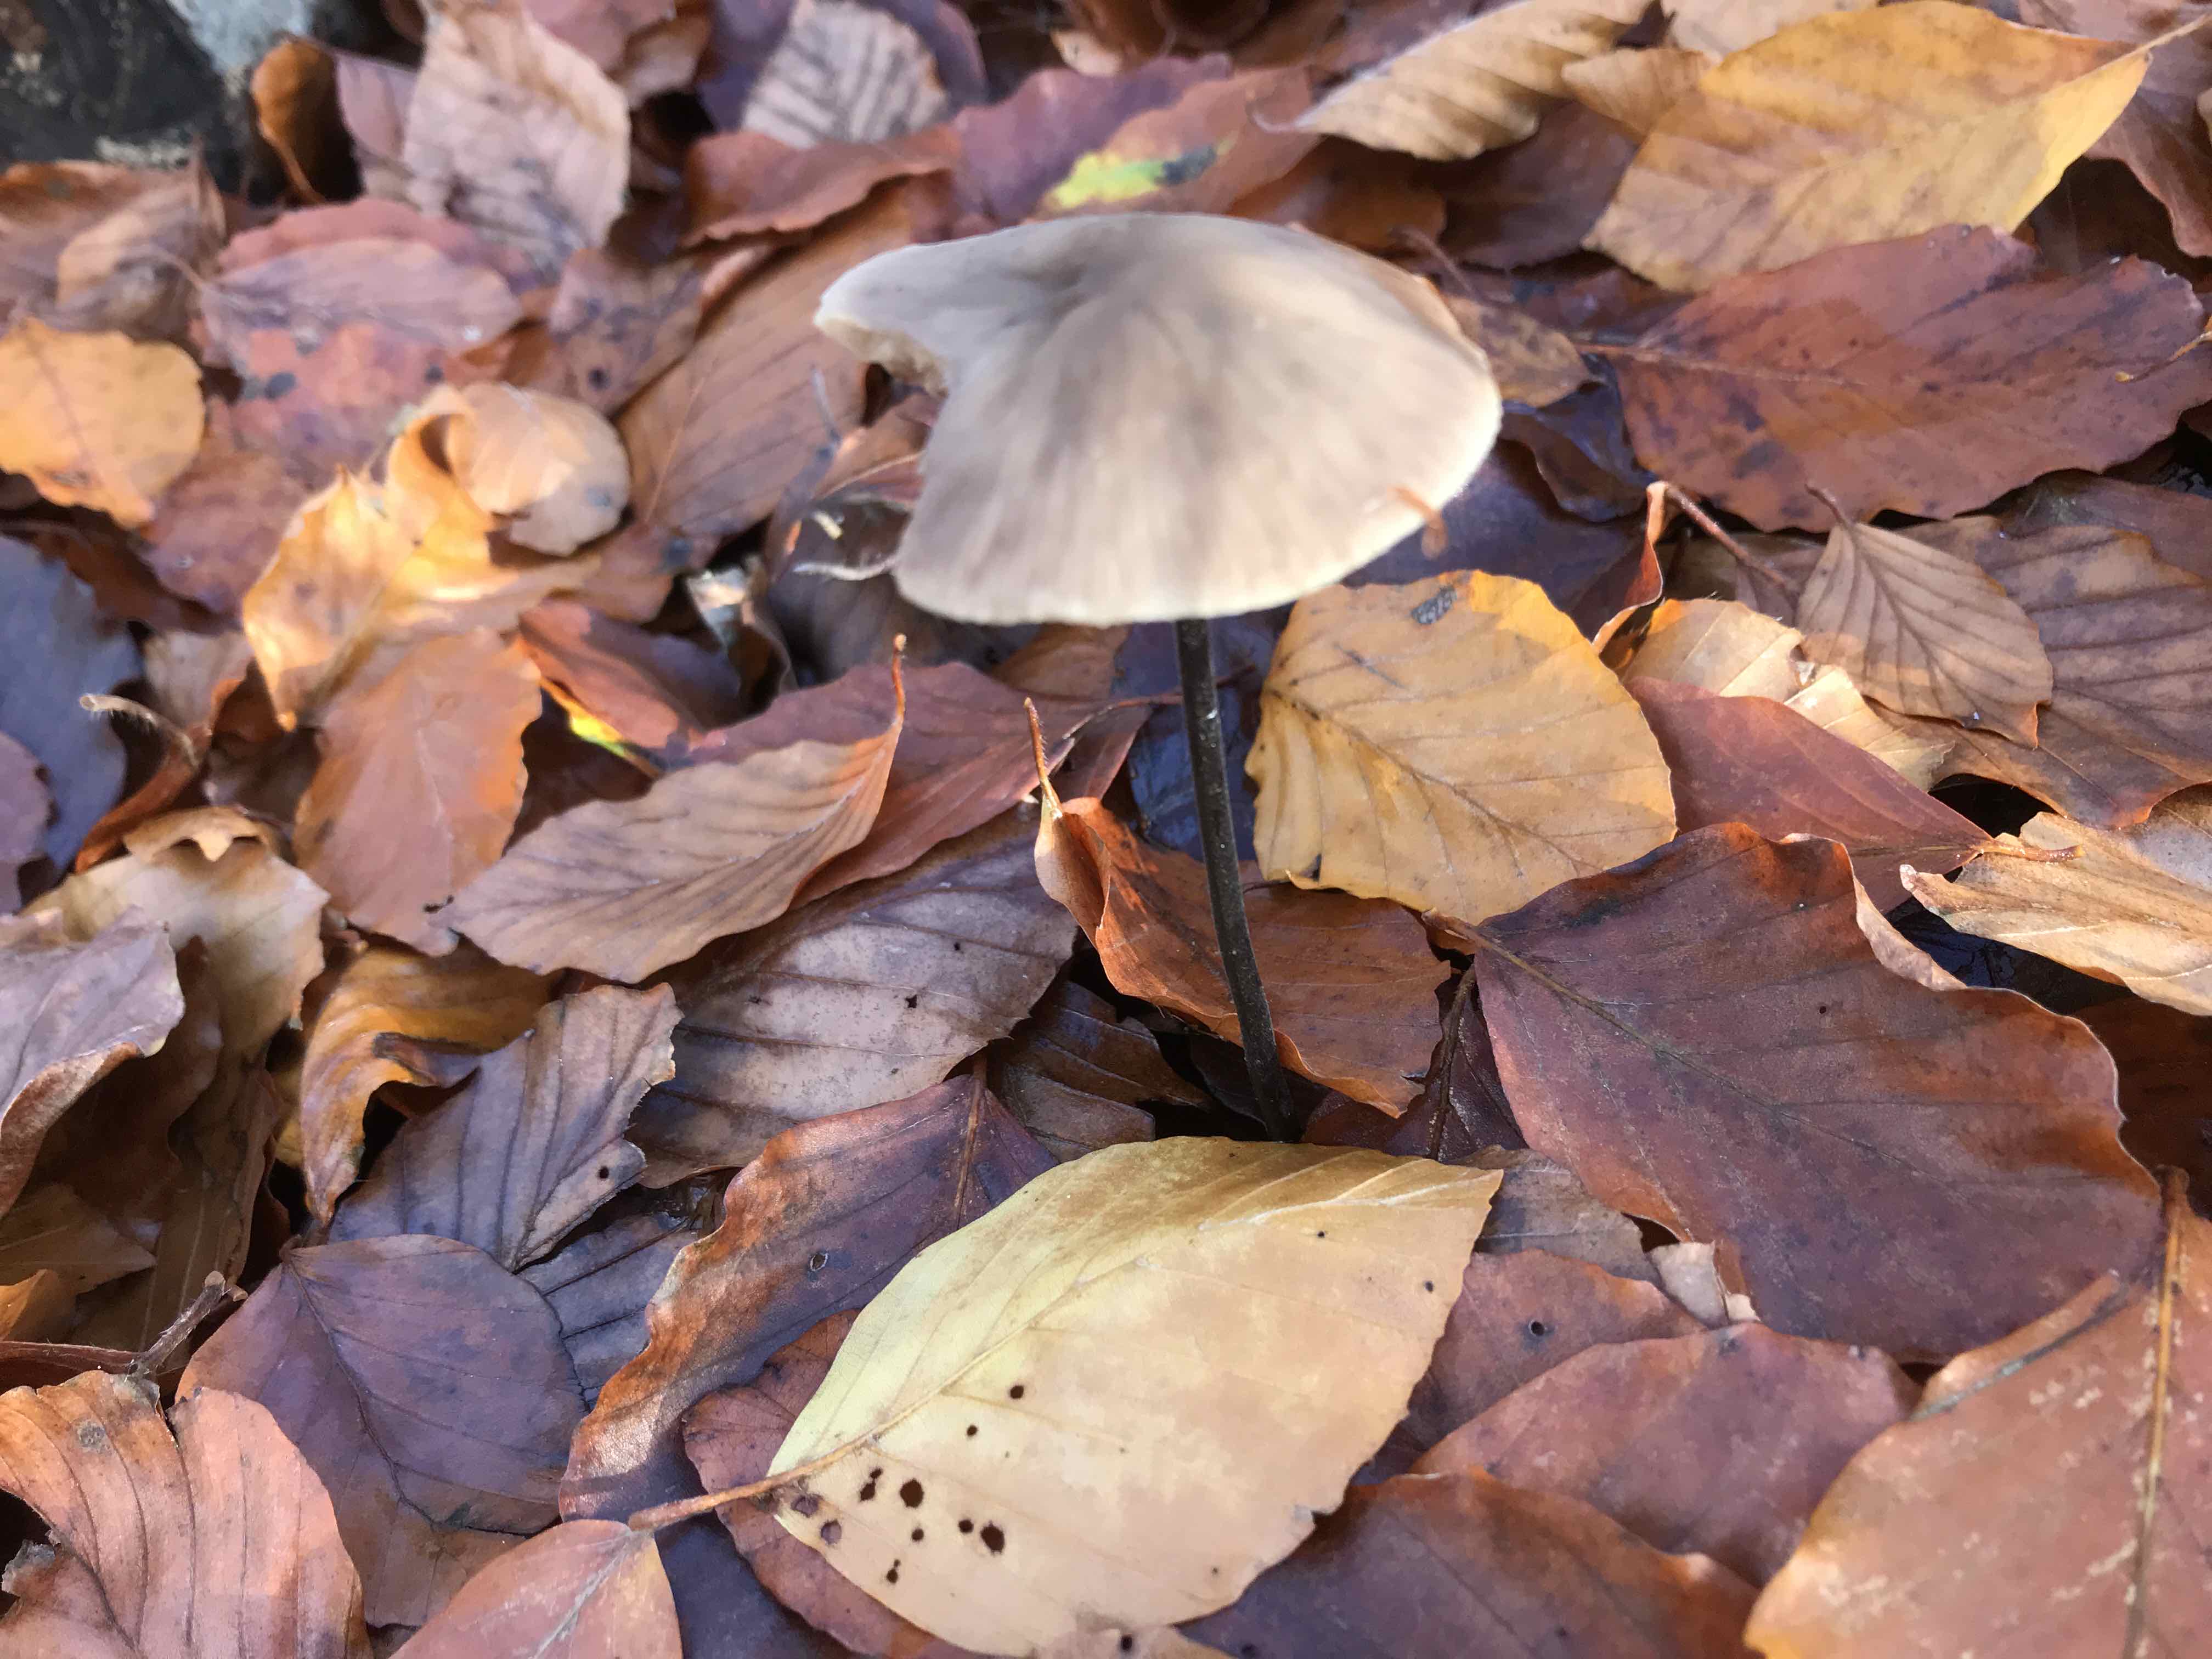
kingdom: Fungi
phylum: Basidiomycota
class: Agaricomycetes
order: Agaricales
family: Omphalotaceae
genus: Mycetinis
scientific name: Mycetinis alliaceus
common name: stor løghat
